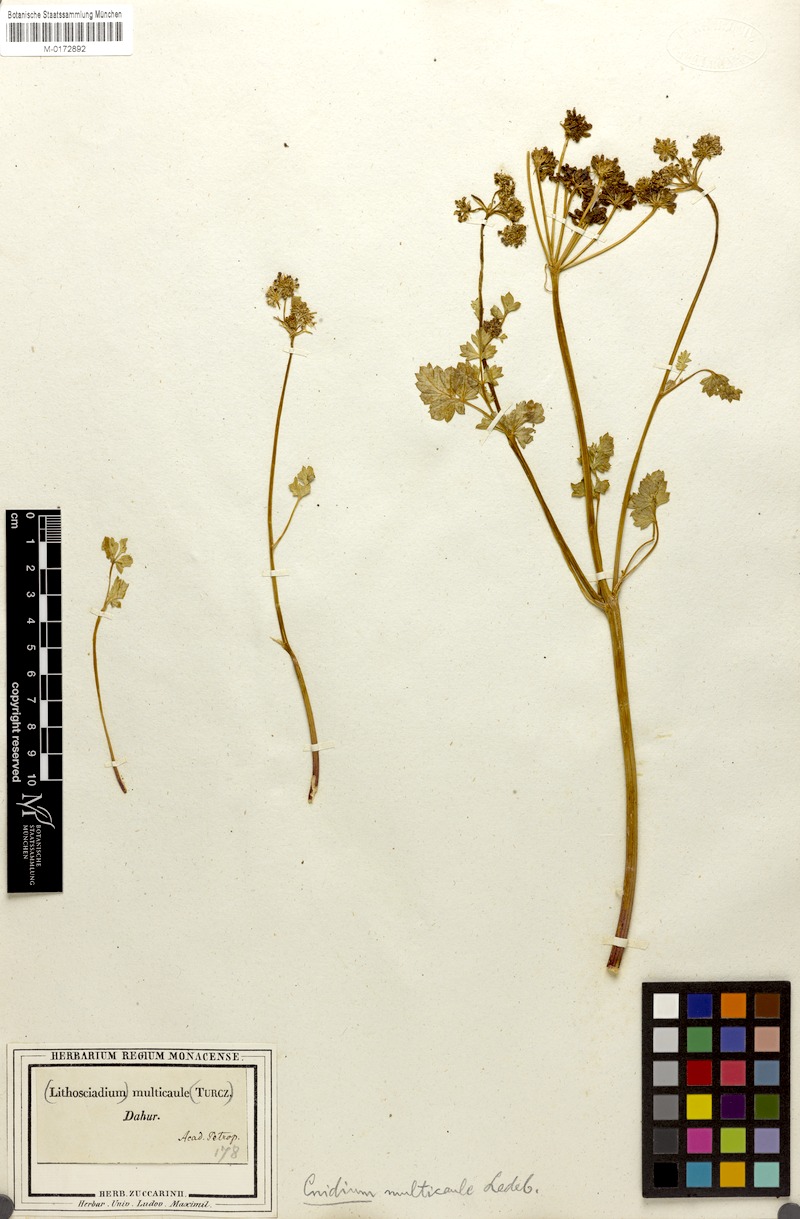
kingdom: Plantae
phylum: Tracheophyta
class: Magnoliopsida
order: Apiales
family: Apiaceae
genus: Lithosciadium
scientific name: Lithosciadium multicaule
